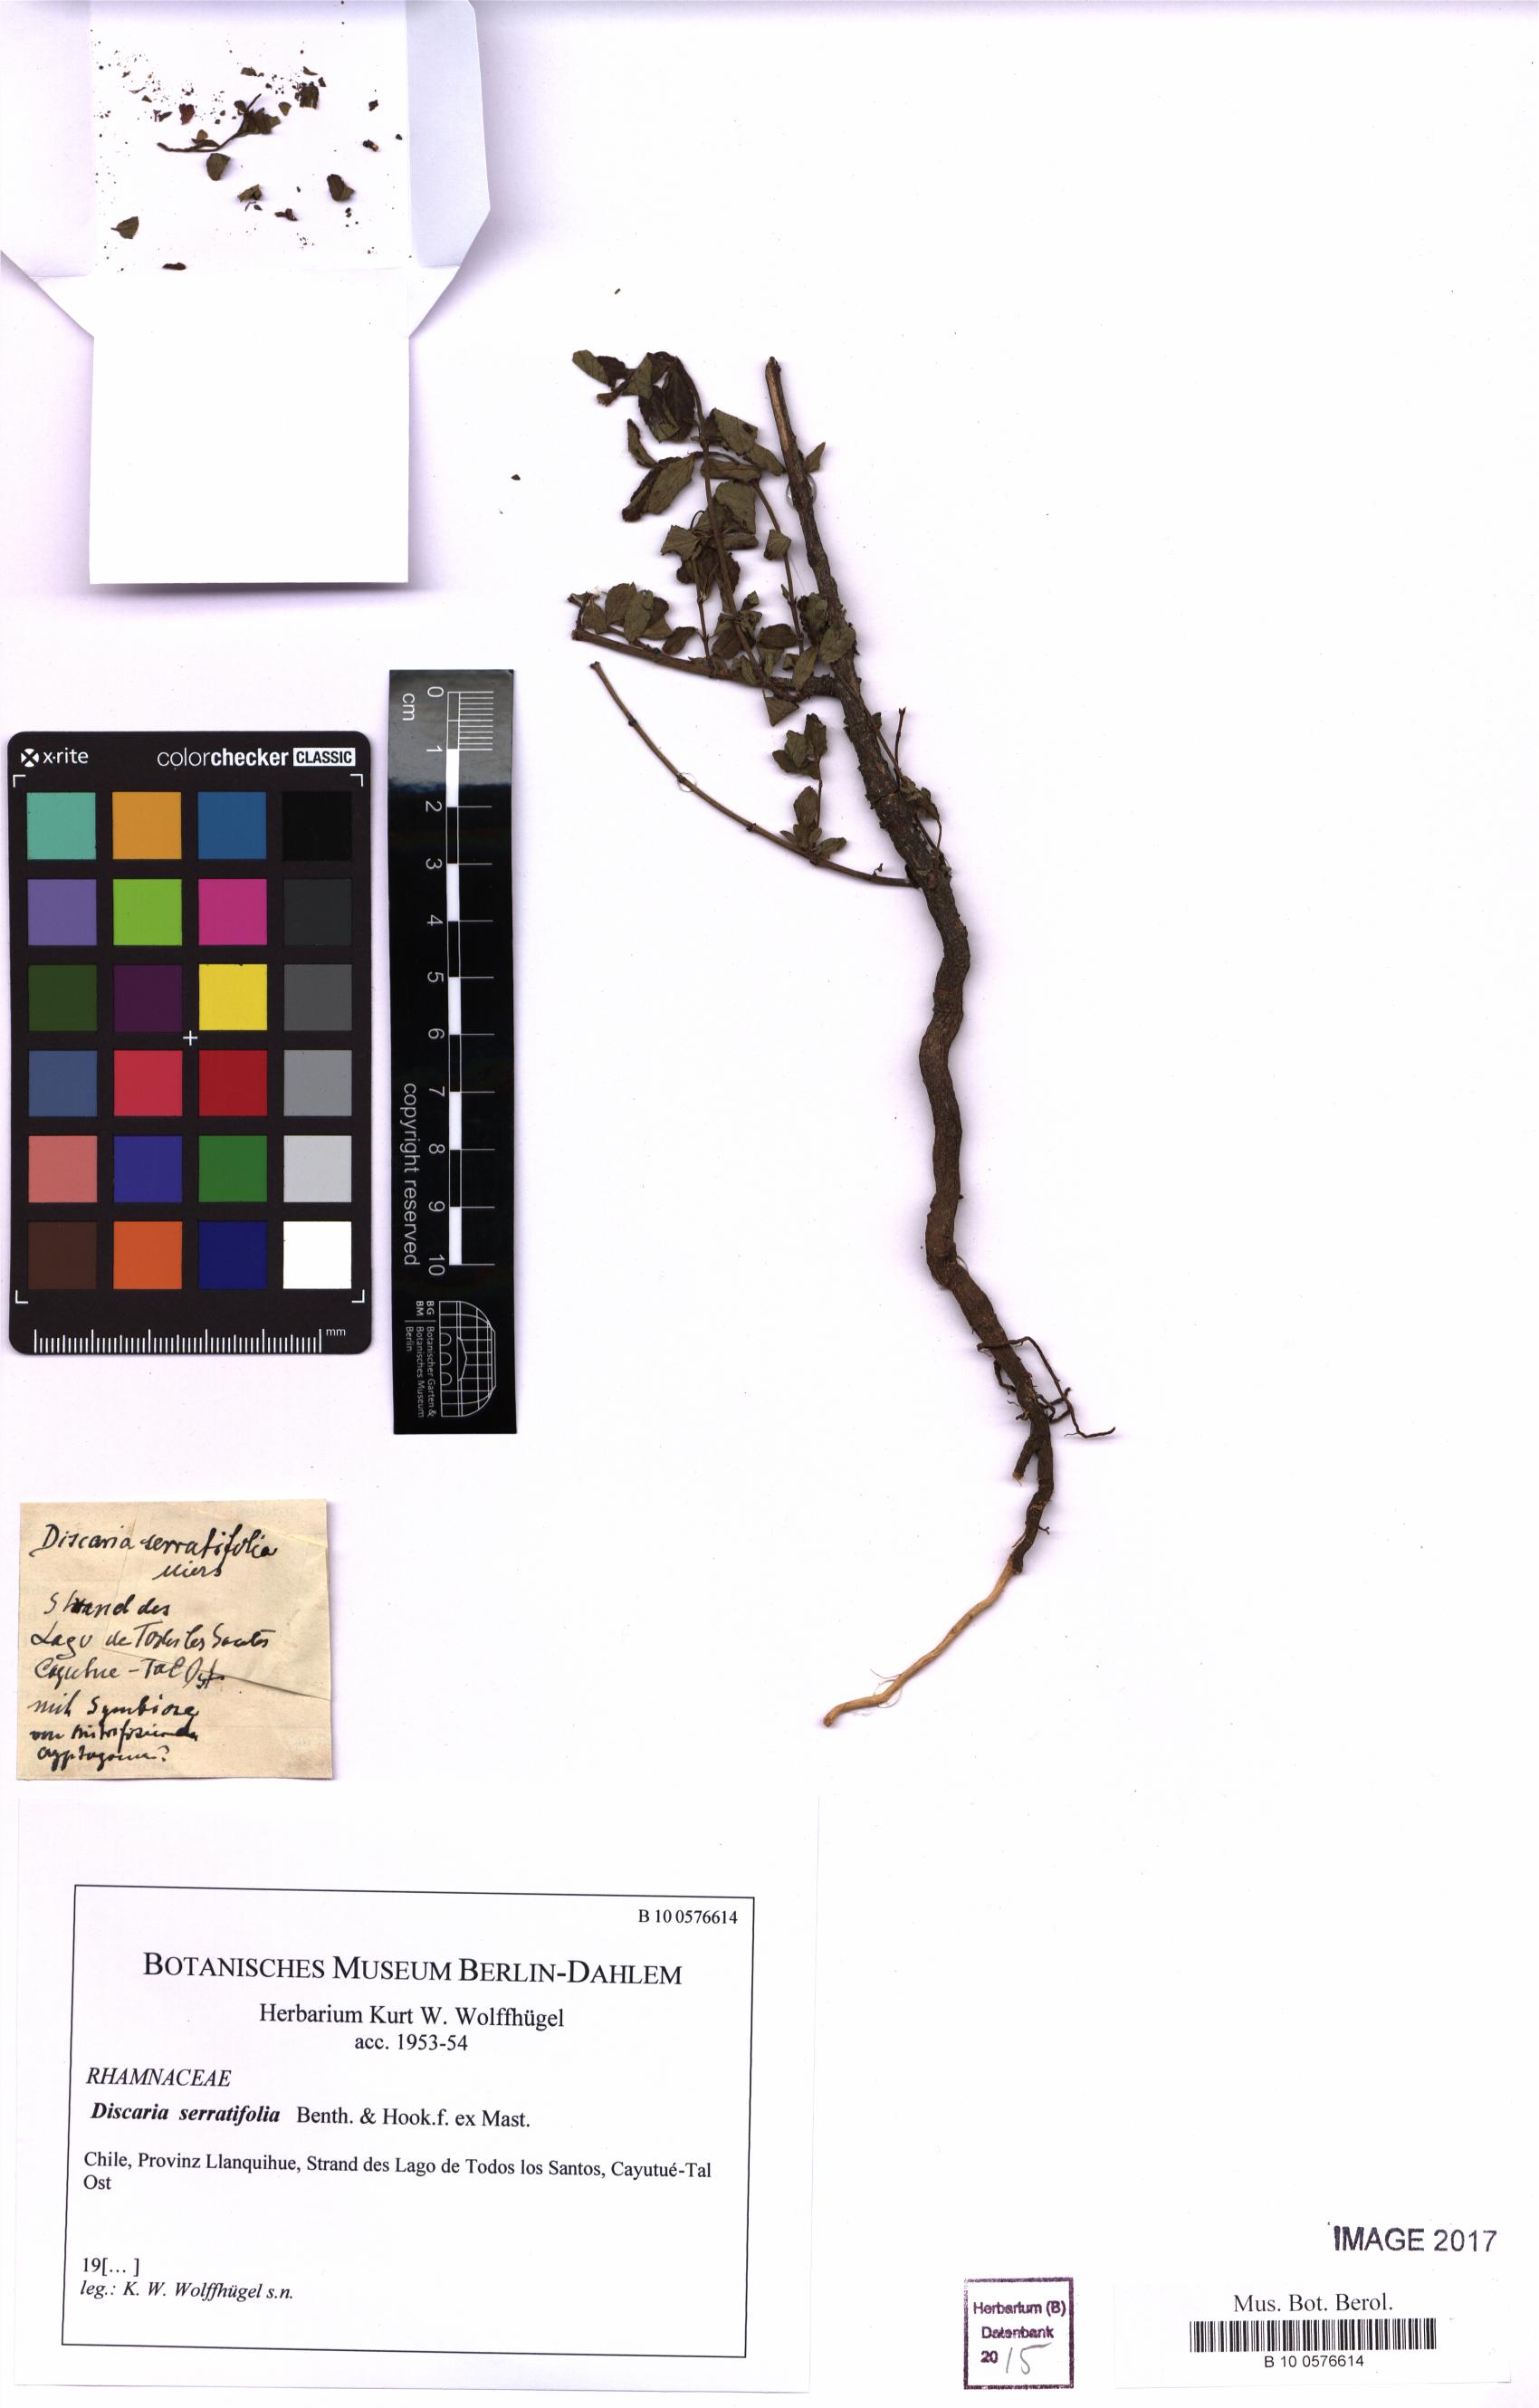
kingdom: Plantae
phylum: Tracheophyta
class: Magnoliopsida
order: Rosales
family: Rhamnaceae
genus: Discaria
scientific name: Discaria serratifolia
